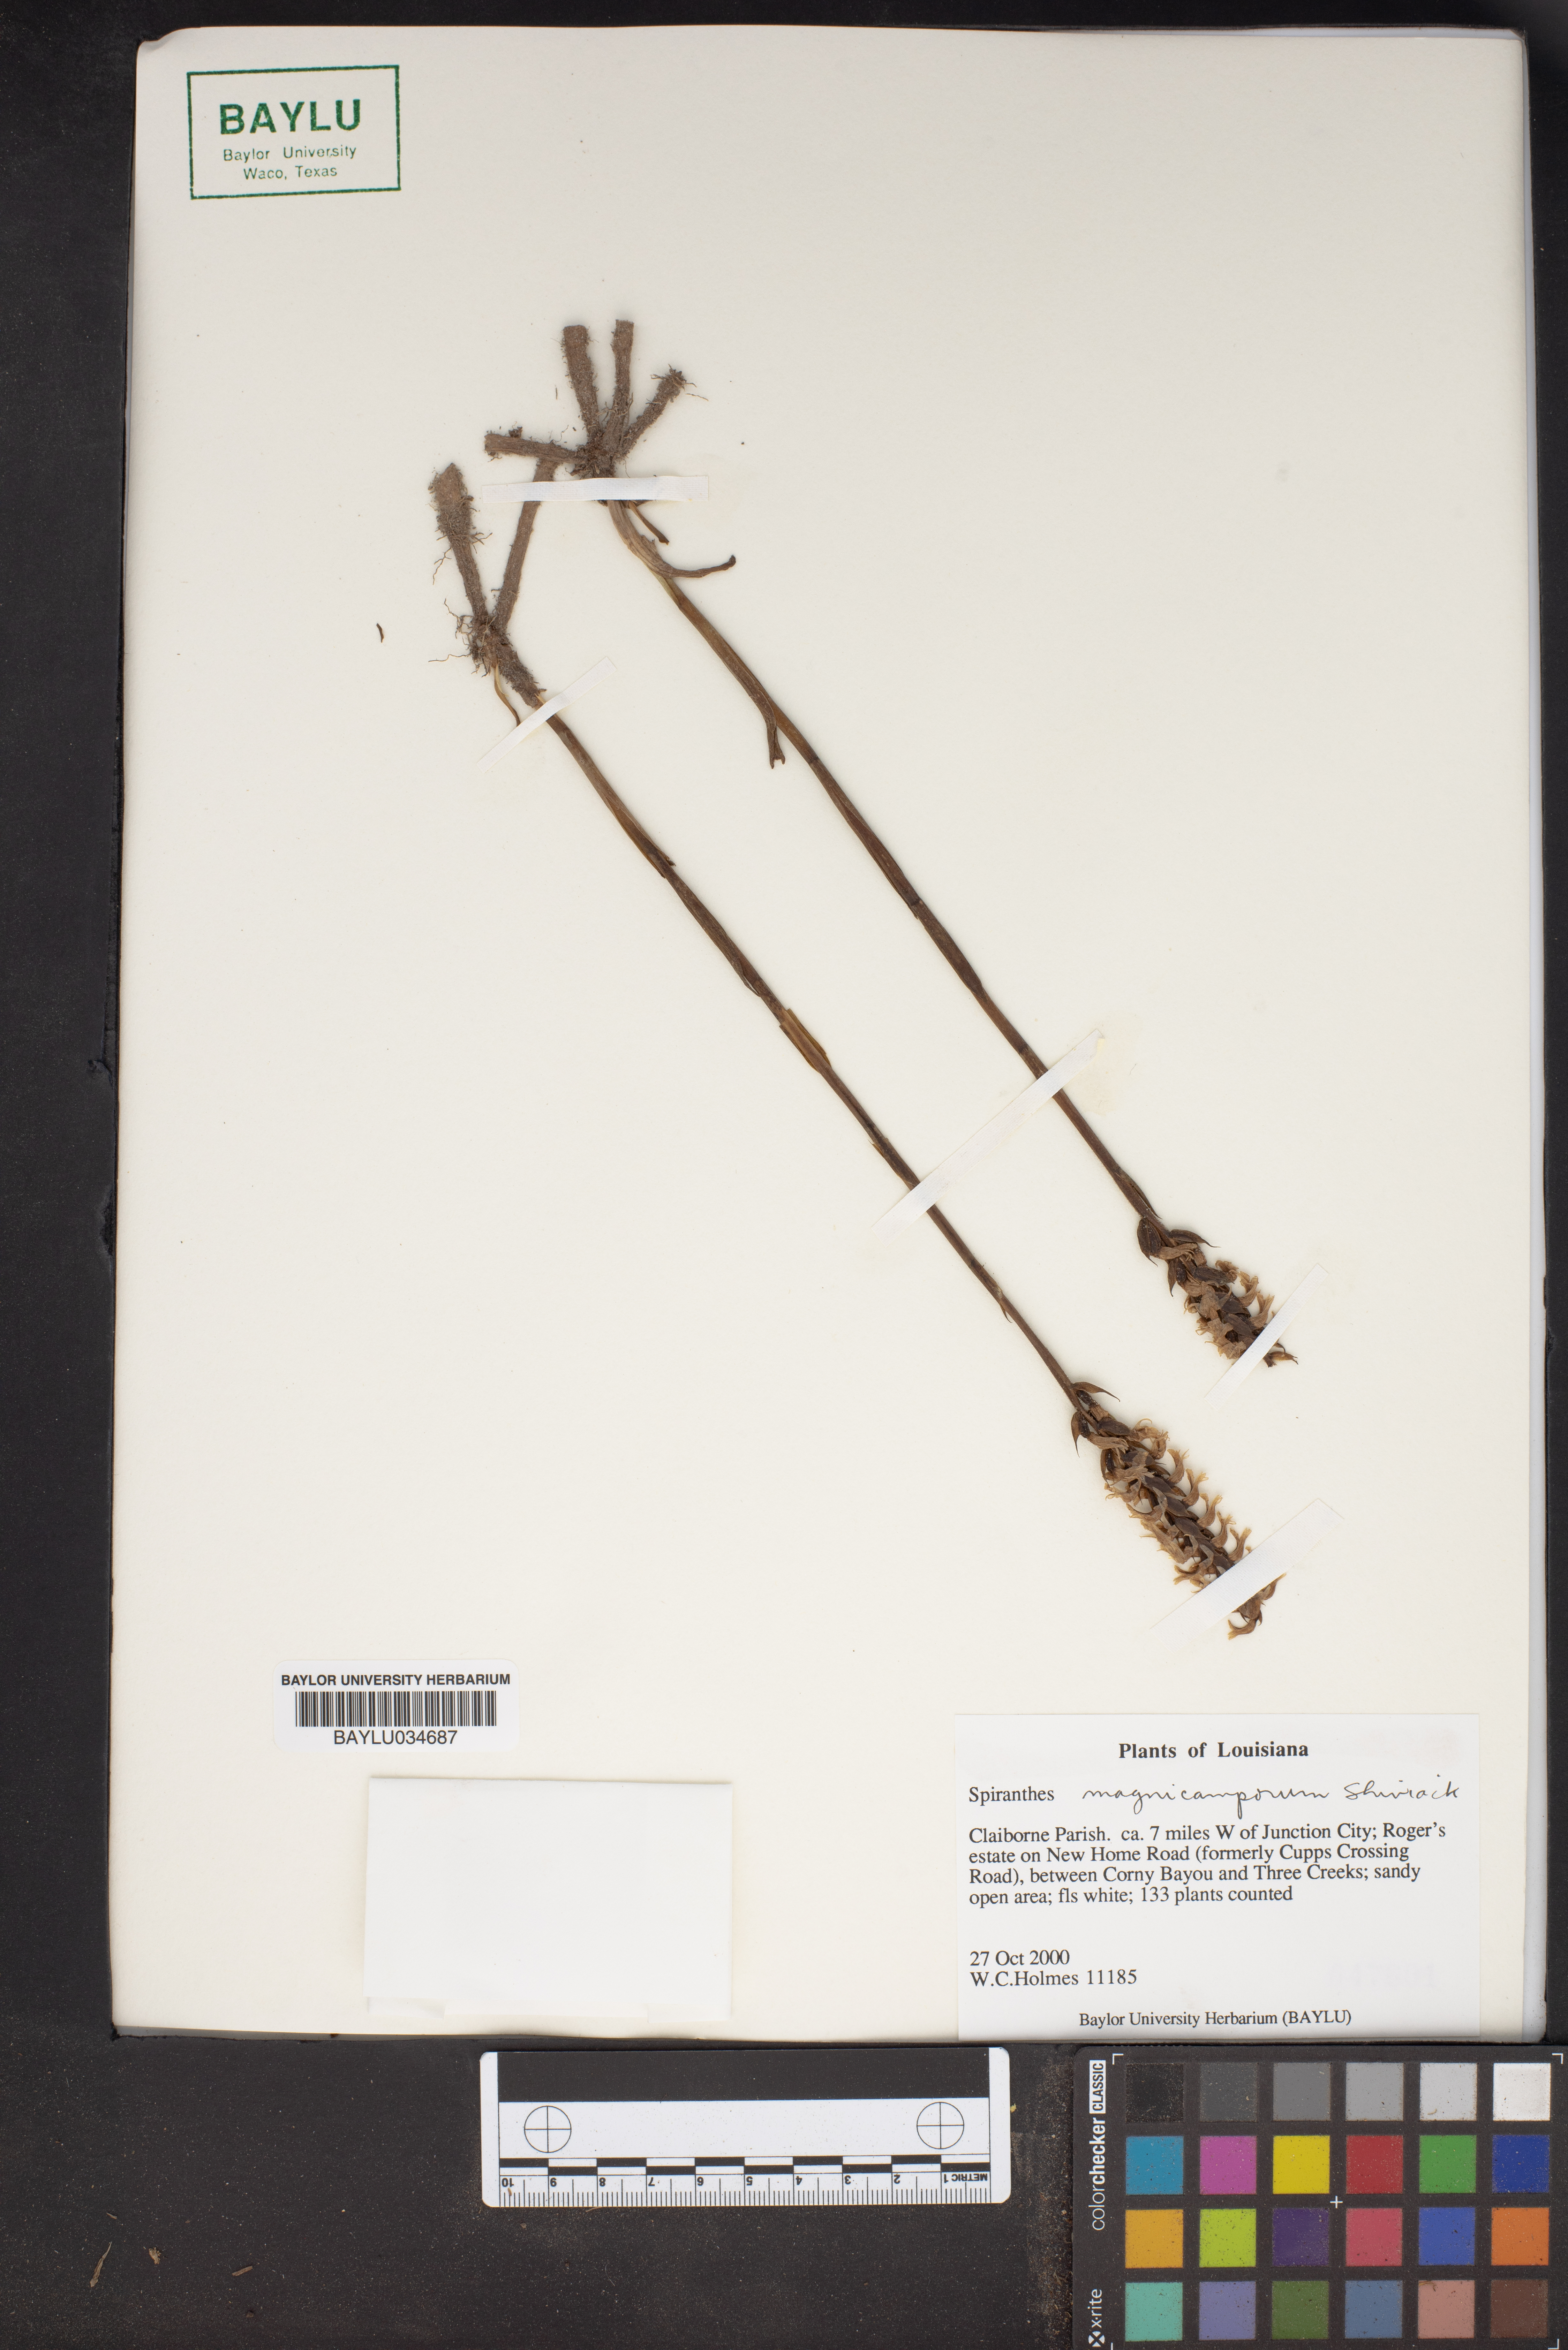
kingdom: Plantae
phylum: Tracheophyta
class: Liliopsida
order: Asparagales
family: Orchidaceae
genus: Spiranthes
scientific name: Spiranthes magnicamporum
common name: Great plains ladies'-tresses
